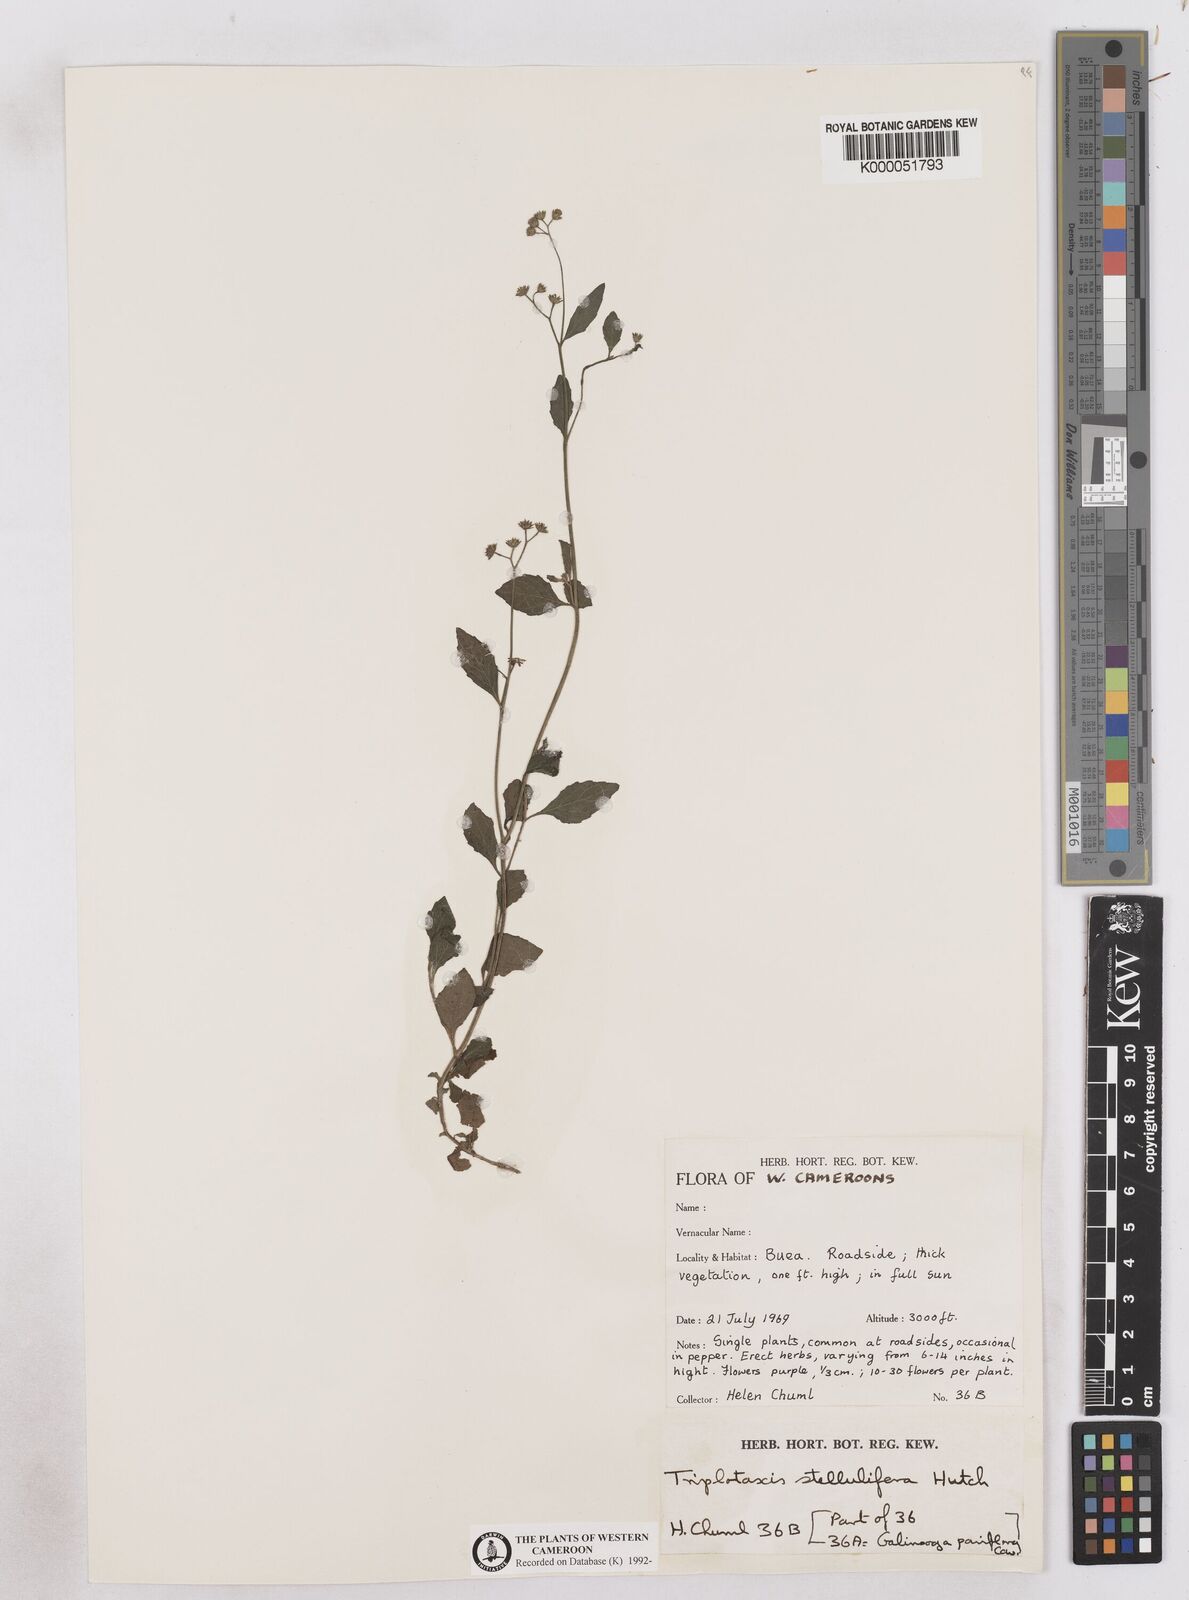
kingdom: Plantae
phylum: Tracheophyta
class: Magnoliopsida
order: Asterales
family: Asteraceae
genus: Cyanthillium
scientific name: Cyanthillium stelluliferum
